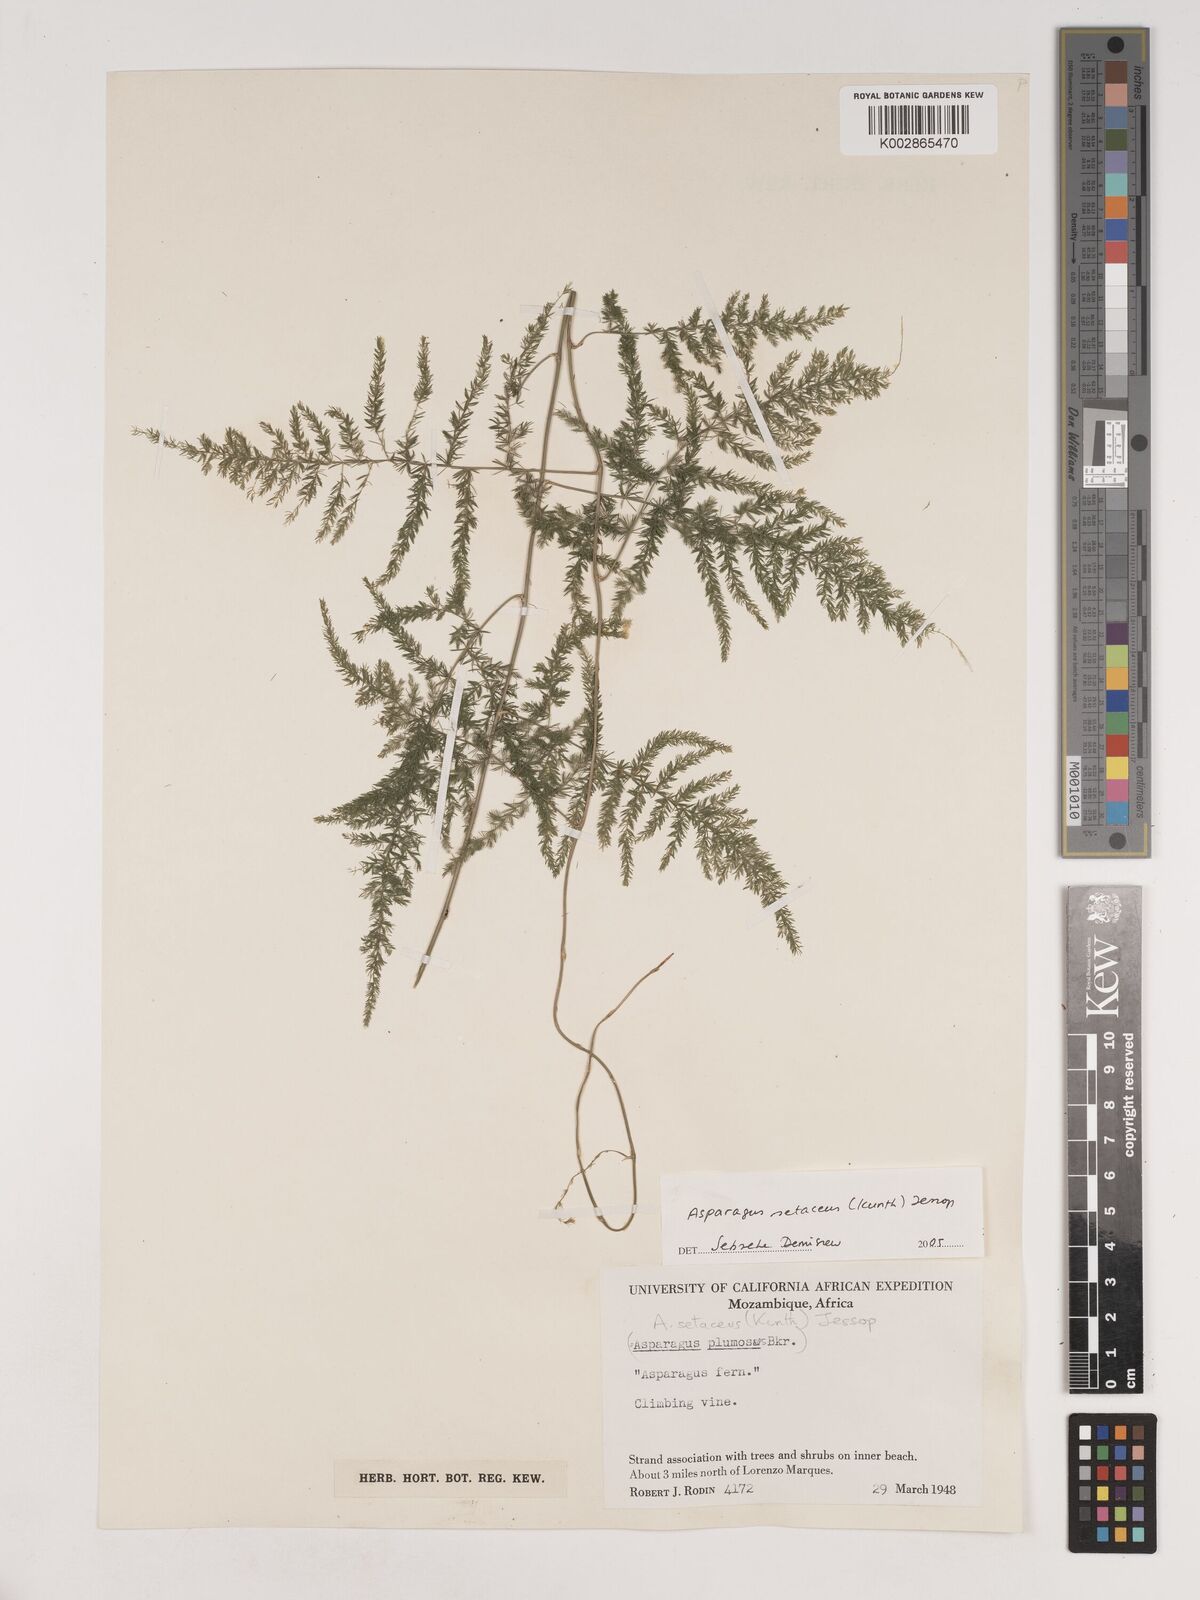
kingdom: Plantae
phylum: Tracheophyta
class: Liliopsida
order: Asparagales
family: Asparagaceae
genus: Asparagus
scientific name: Asparagus setaceus
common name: Common asparagus fern
